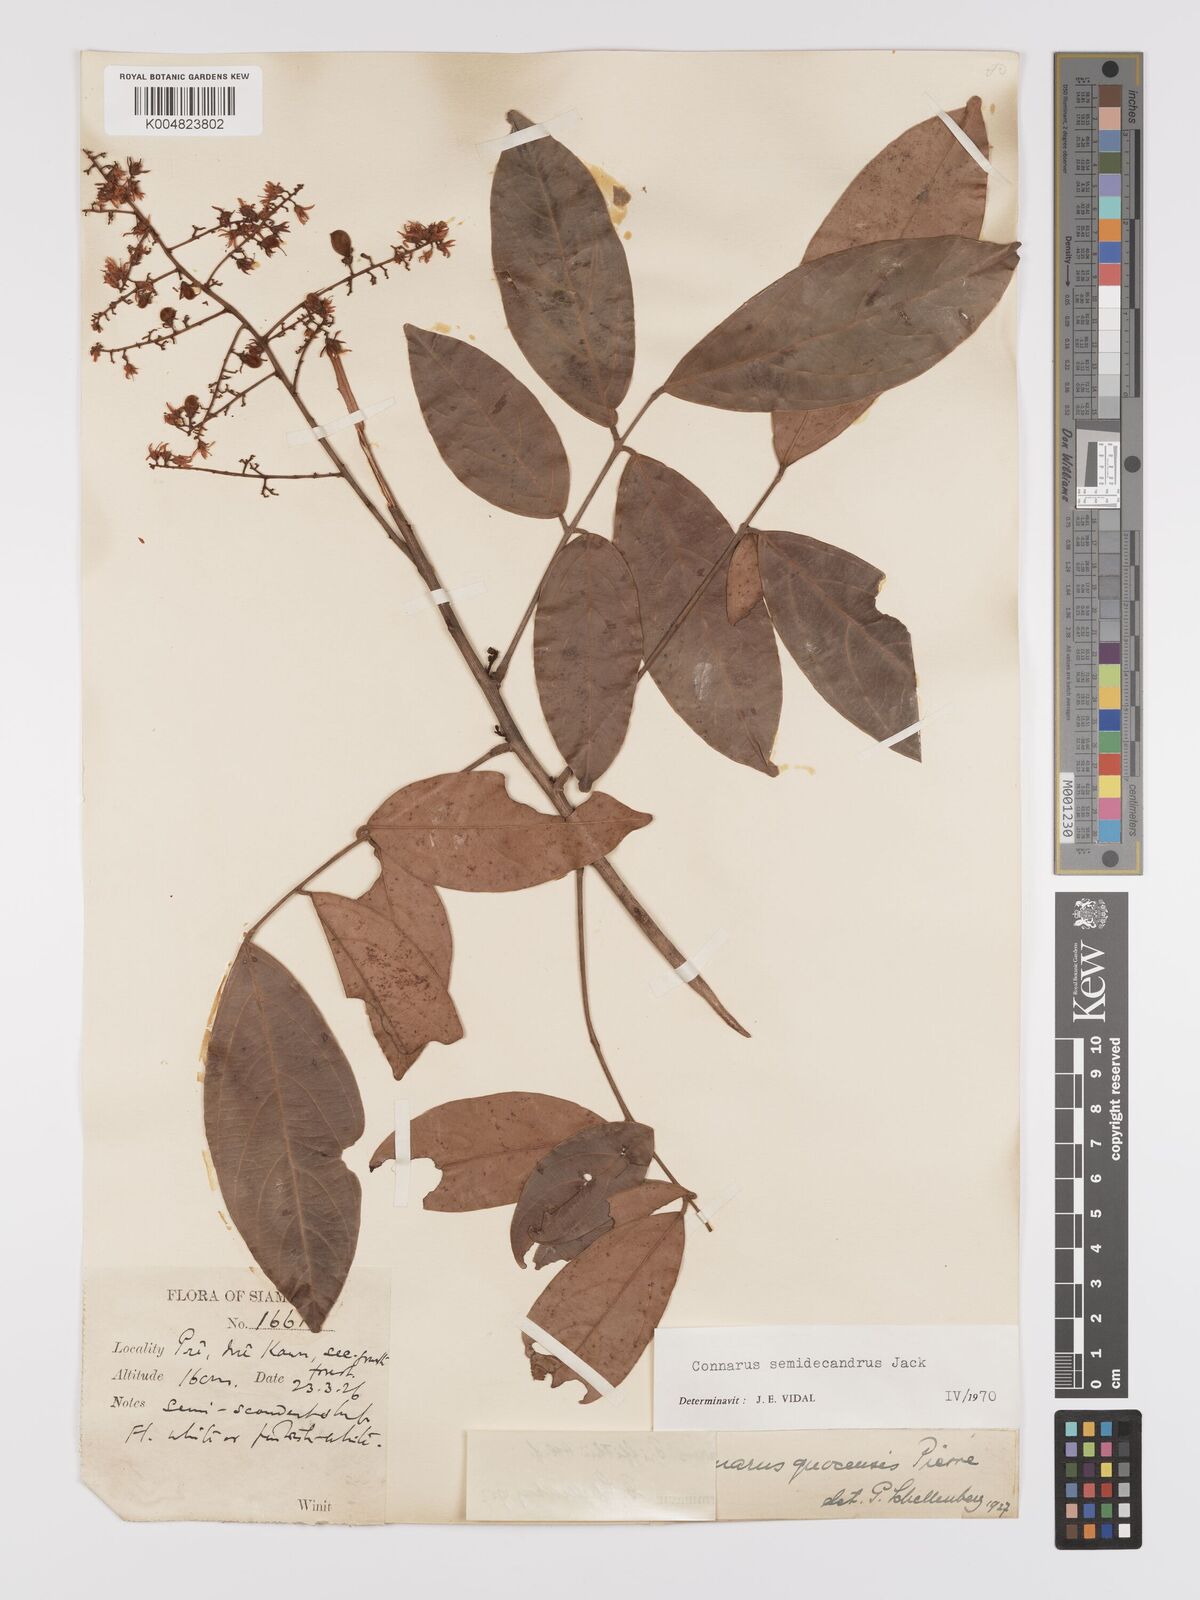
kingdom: Plantae
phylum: Tracheophyta
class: Magnoliopsida
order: Oxalidales
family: Connaraceae
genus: Connarus
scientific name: Connarus semidecandrus
